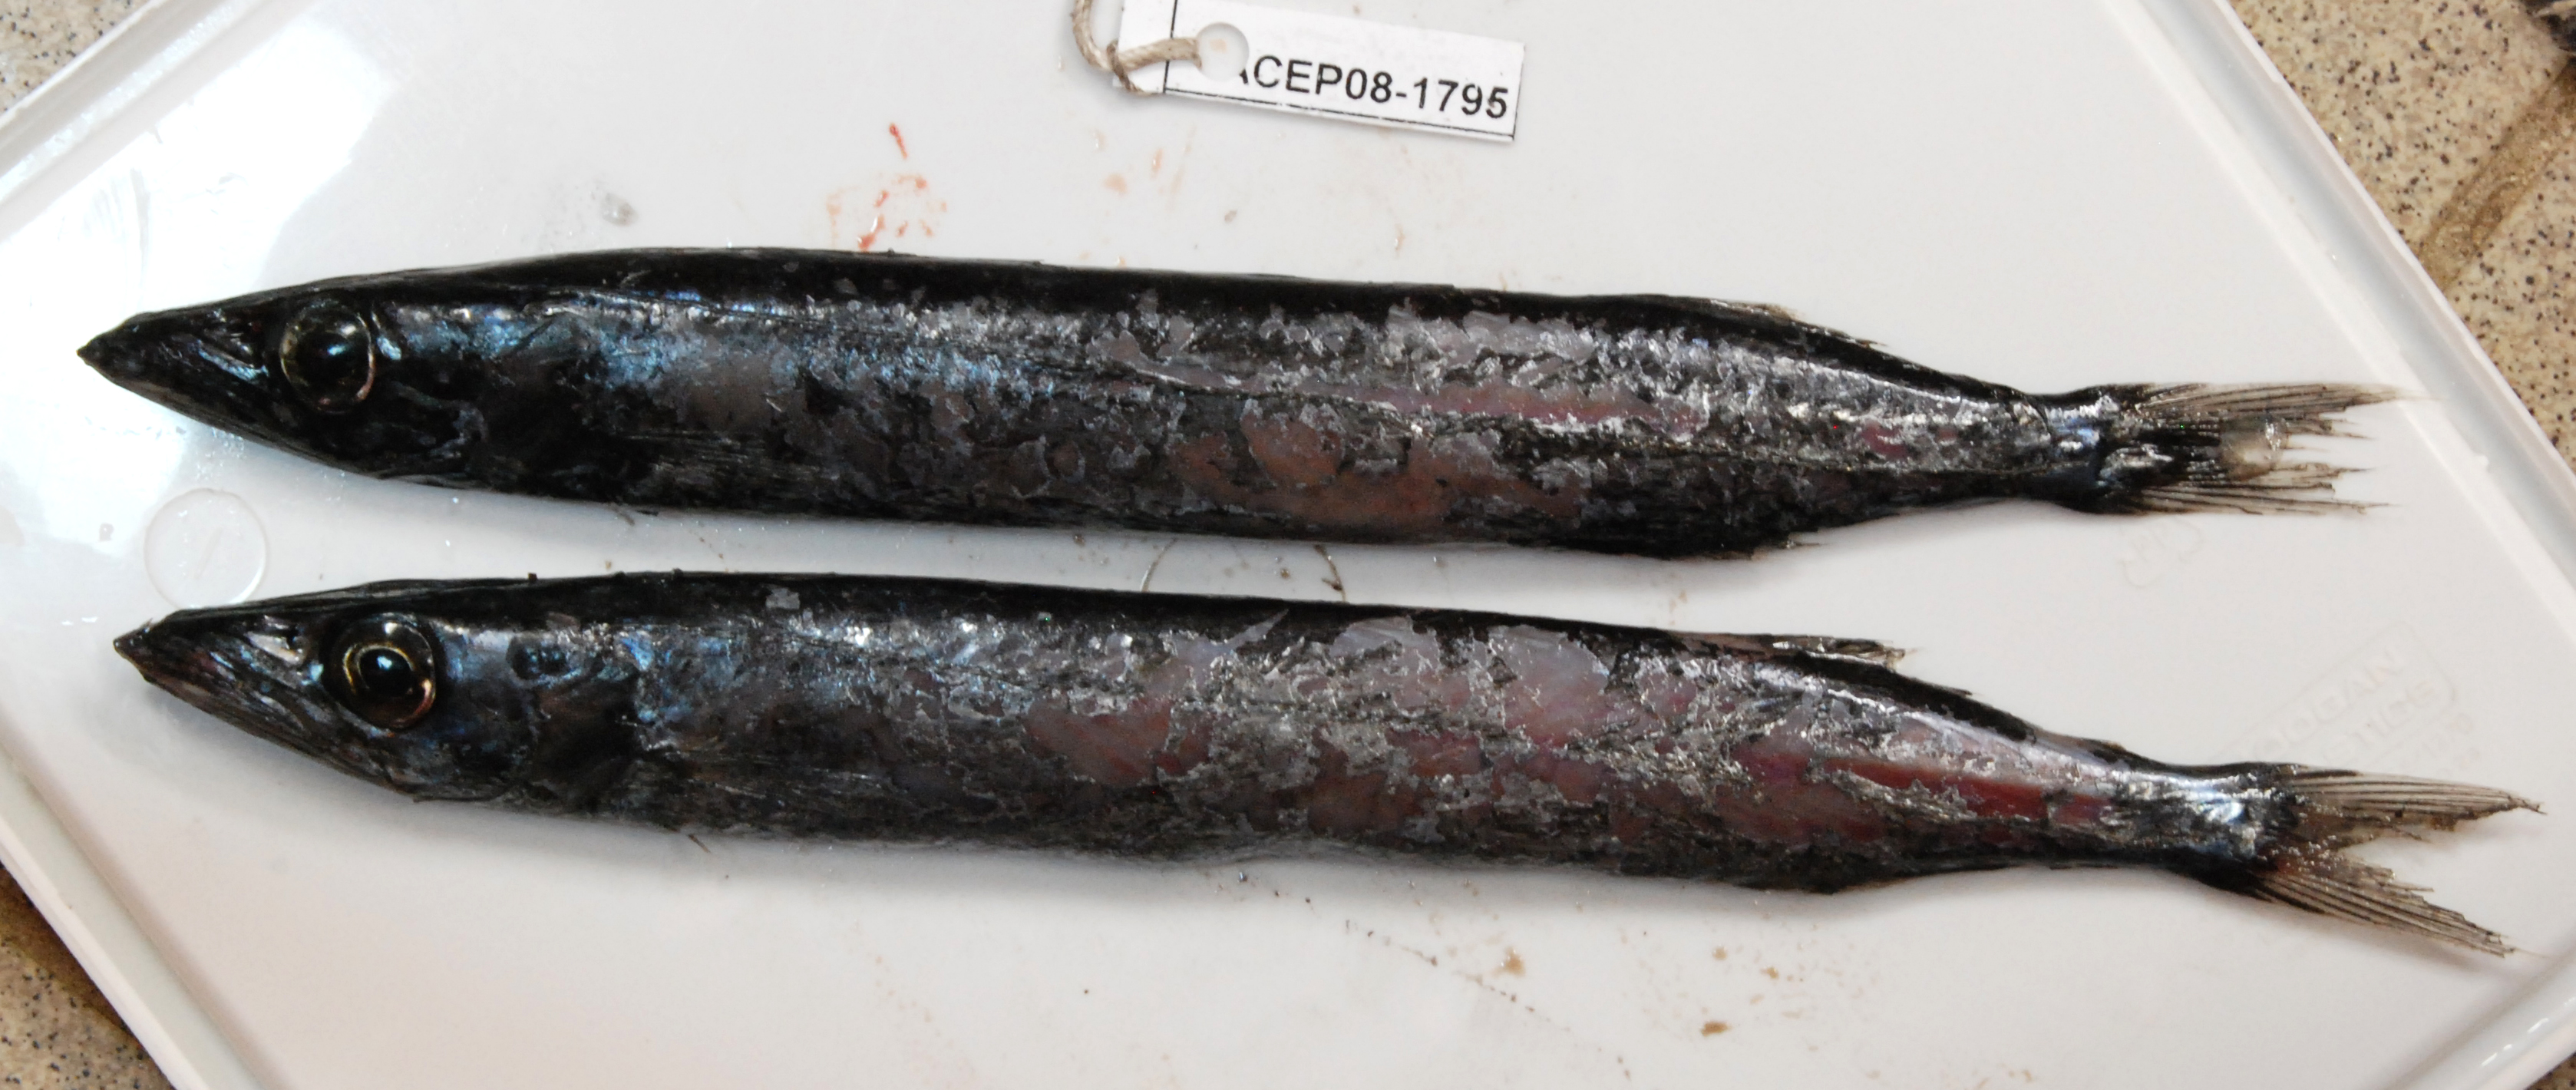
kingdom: Animalia
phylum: Chordata
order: Perciformes
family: Gempylidae
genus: Nealotus
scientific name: Nealotus tripes
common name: Black snake mackerel
